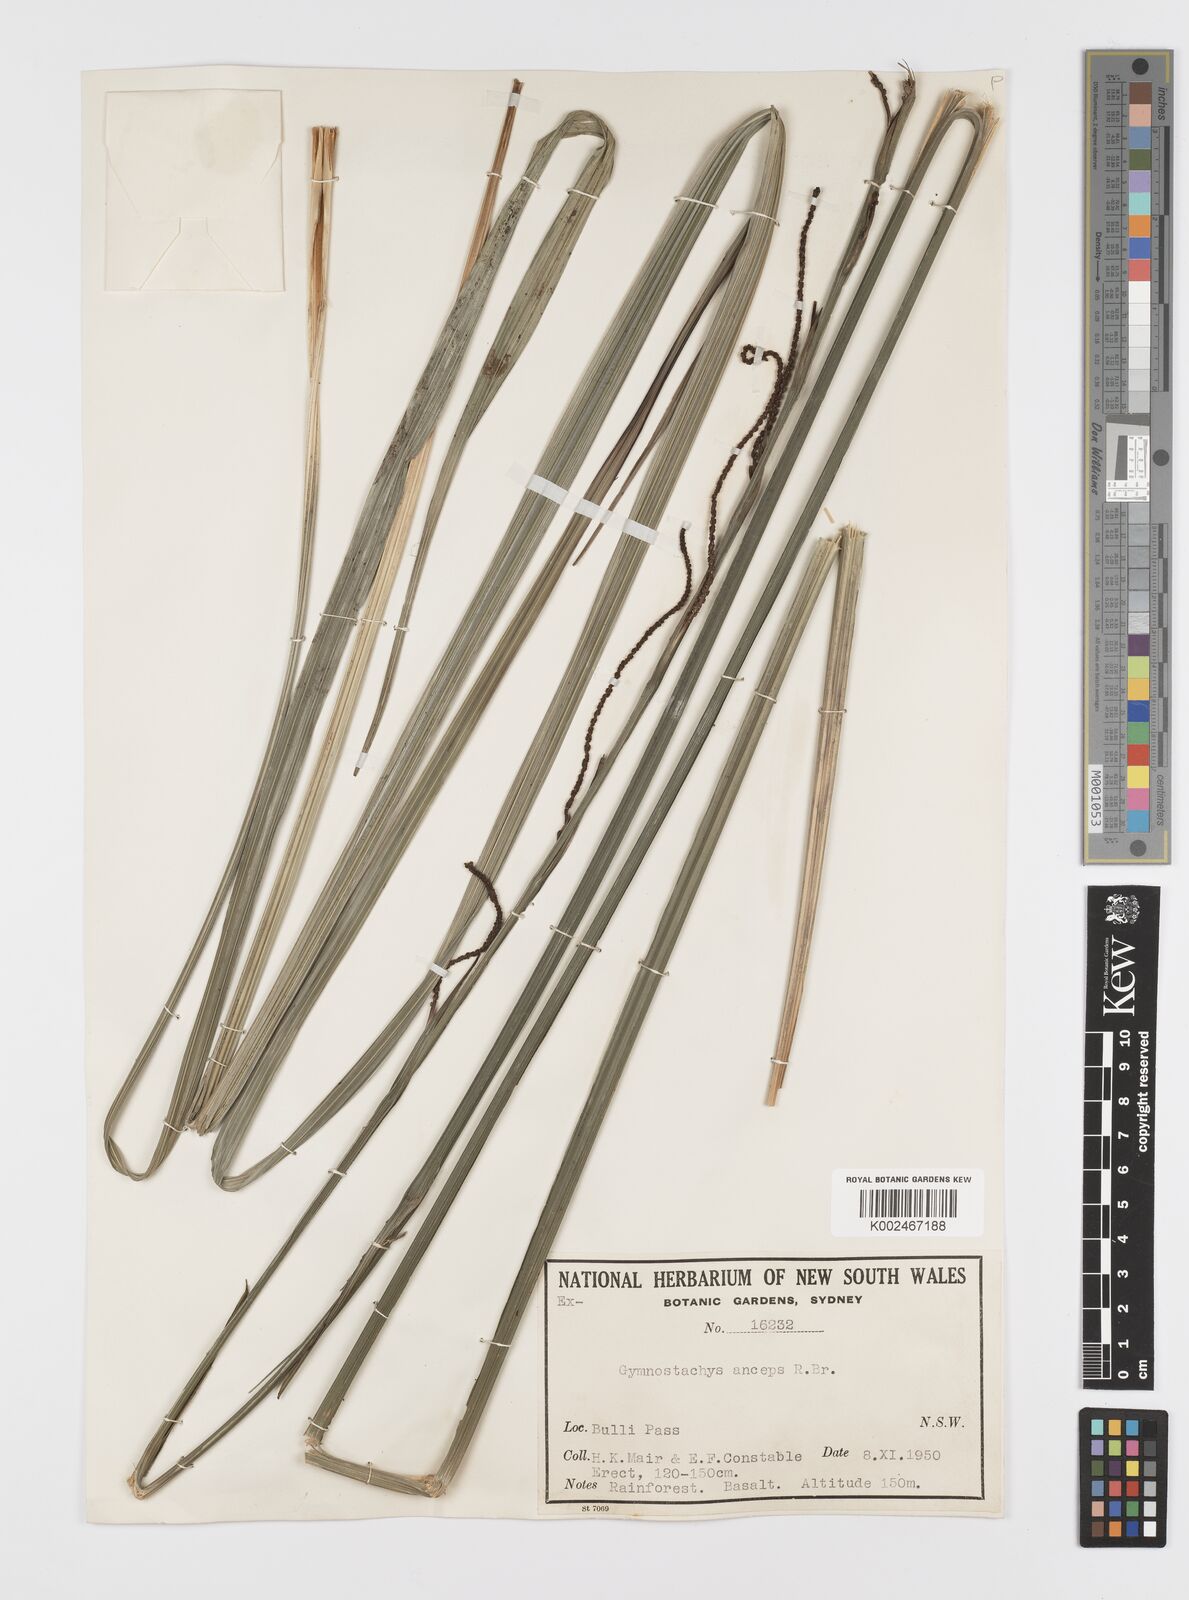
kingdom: Plantae
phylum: Tracheophyta
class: Liliopsida
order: Alismatales
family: Araceae
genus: Gymnostachys
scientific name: Gymnostachys anceps
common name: Settler's-flax
